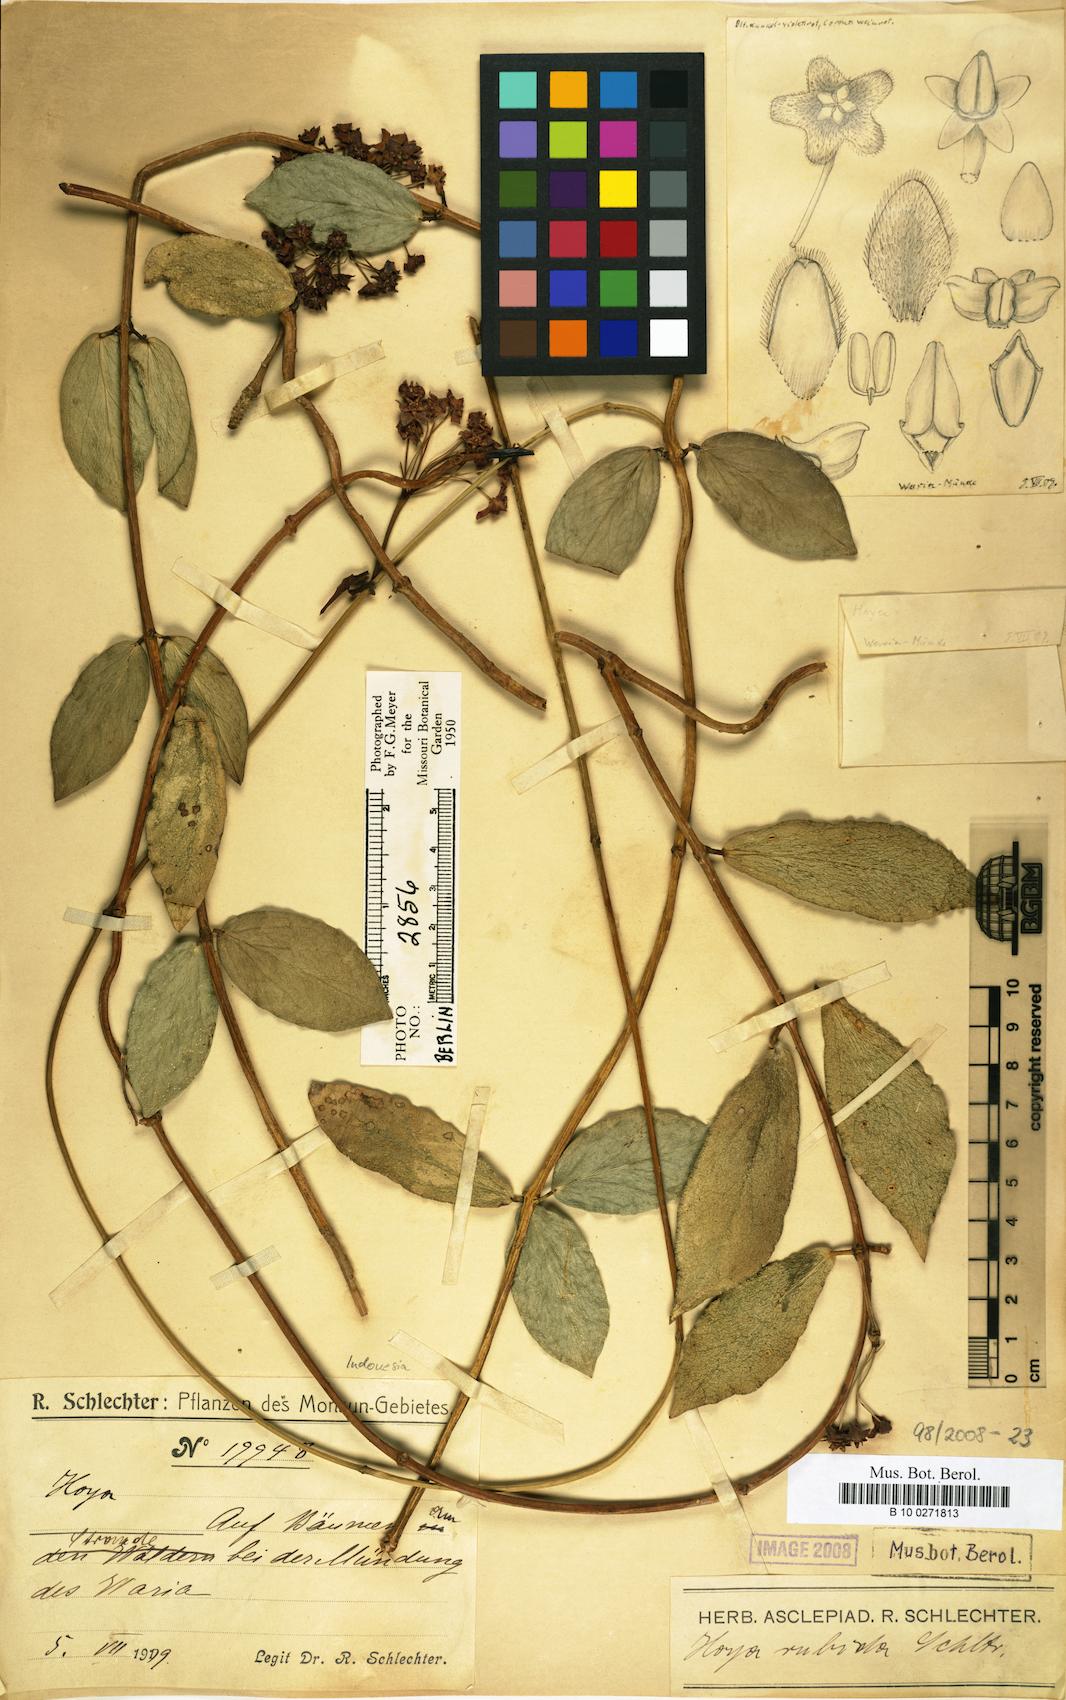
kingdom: Plantae
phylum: Tracheophyta
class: Magnoliopsida
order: Gentianales
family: Apocynaceae
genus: Hoya
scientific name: Hoya globulifera
